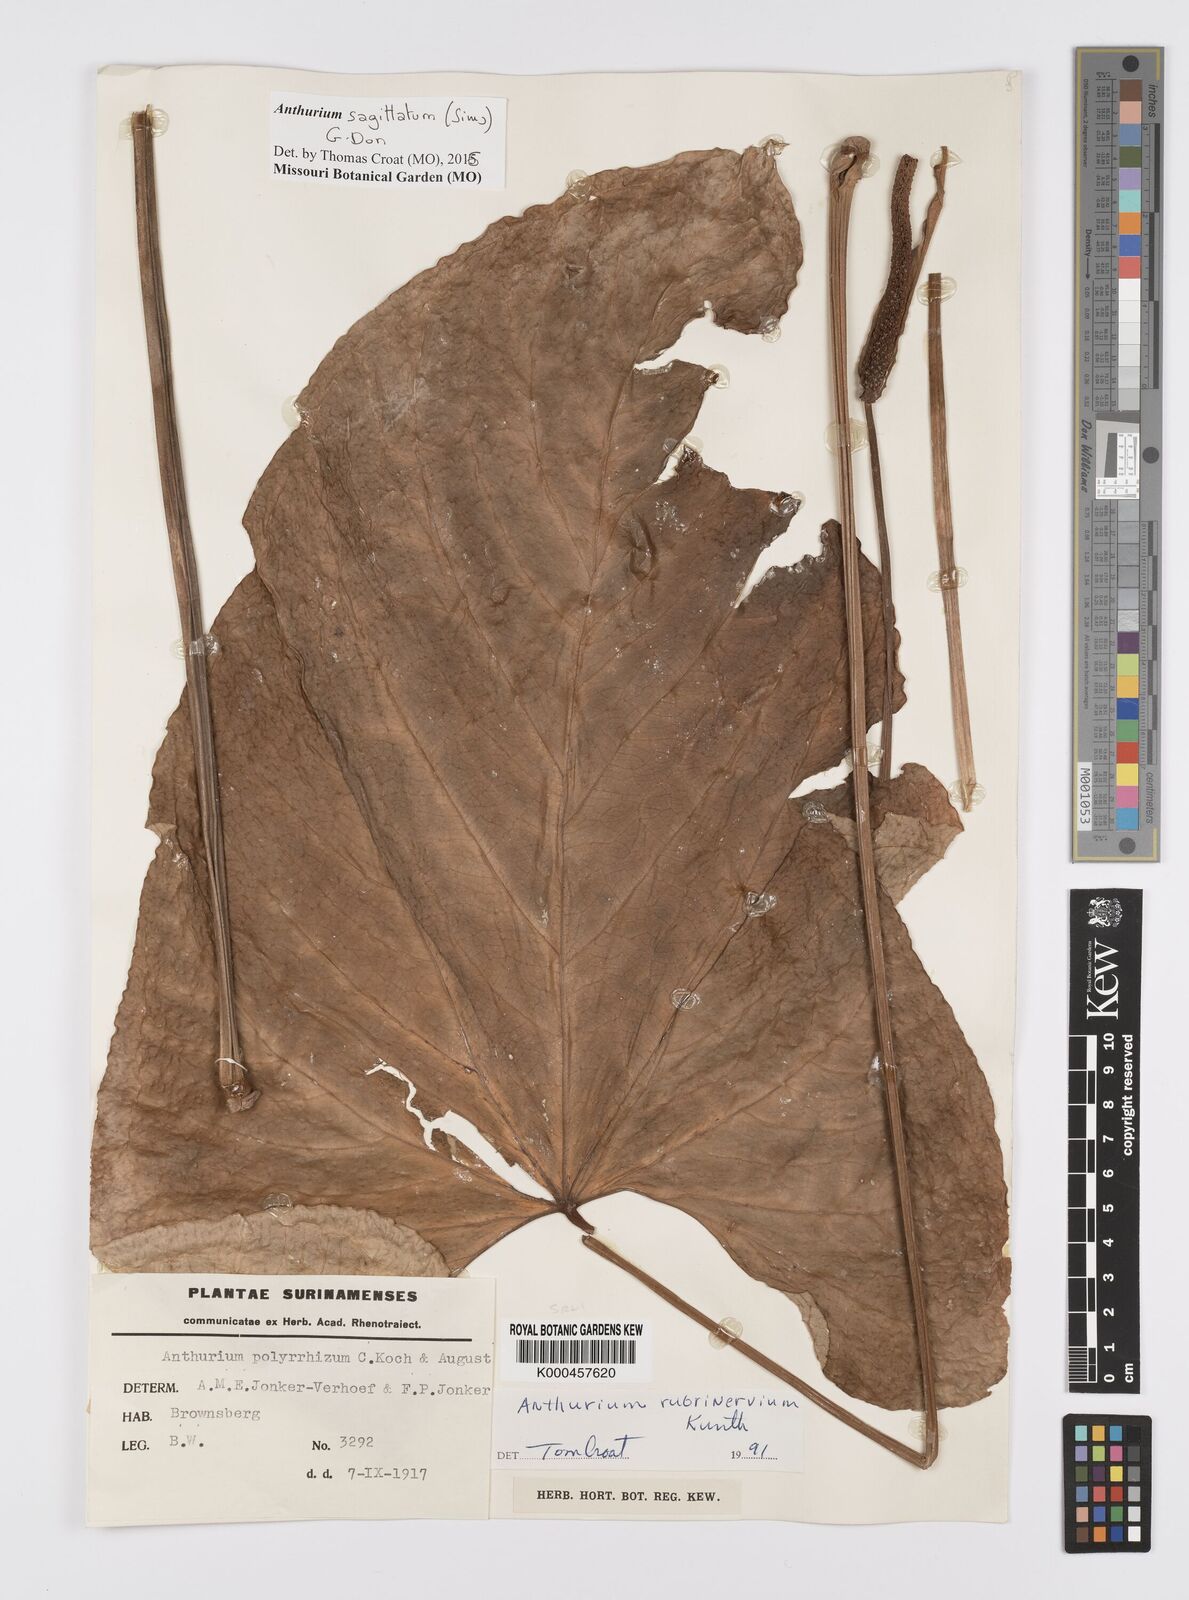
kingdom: Plantae
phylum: Tracheophyta
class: Liliopsida
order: Alismatales
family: Araceae
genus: Anthurium
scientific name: Anthurium sagittatum
